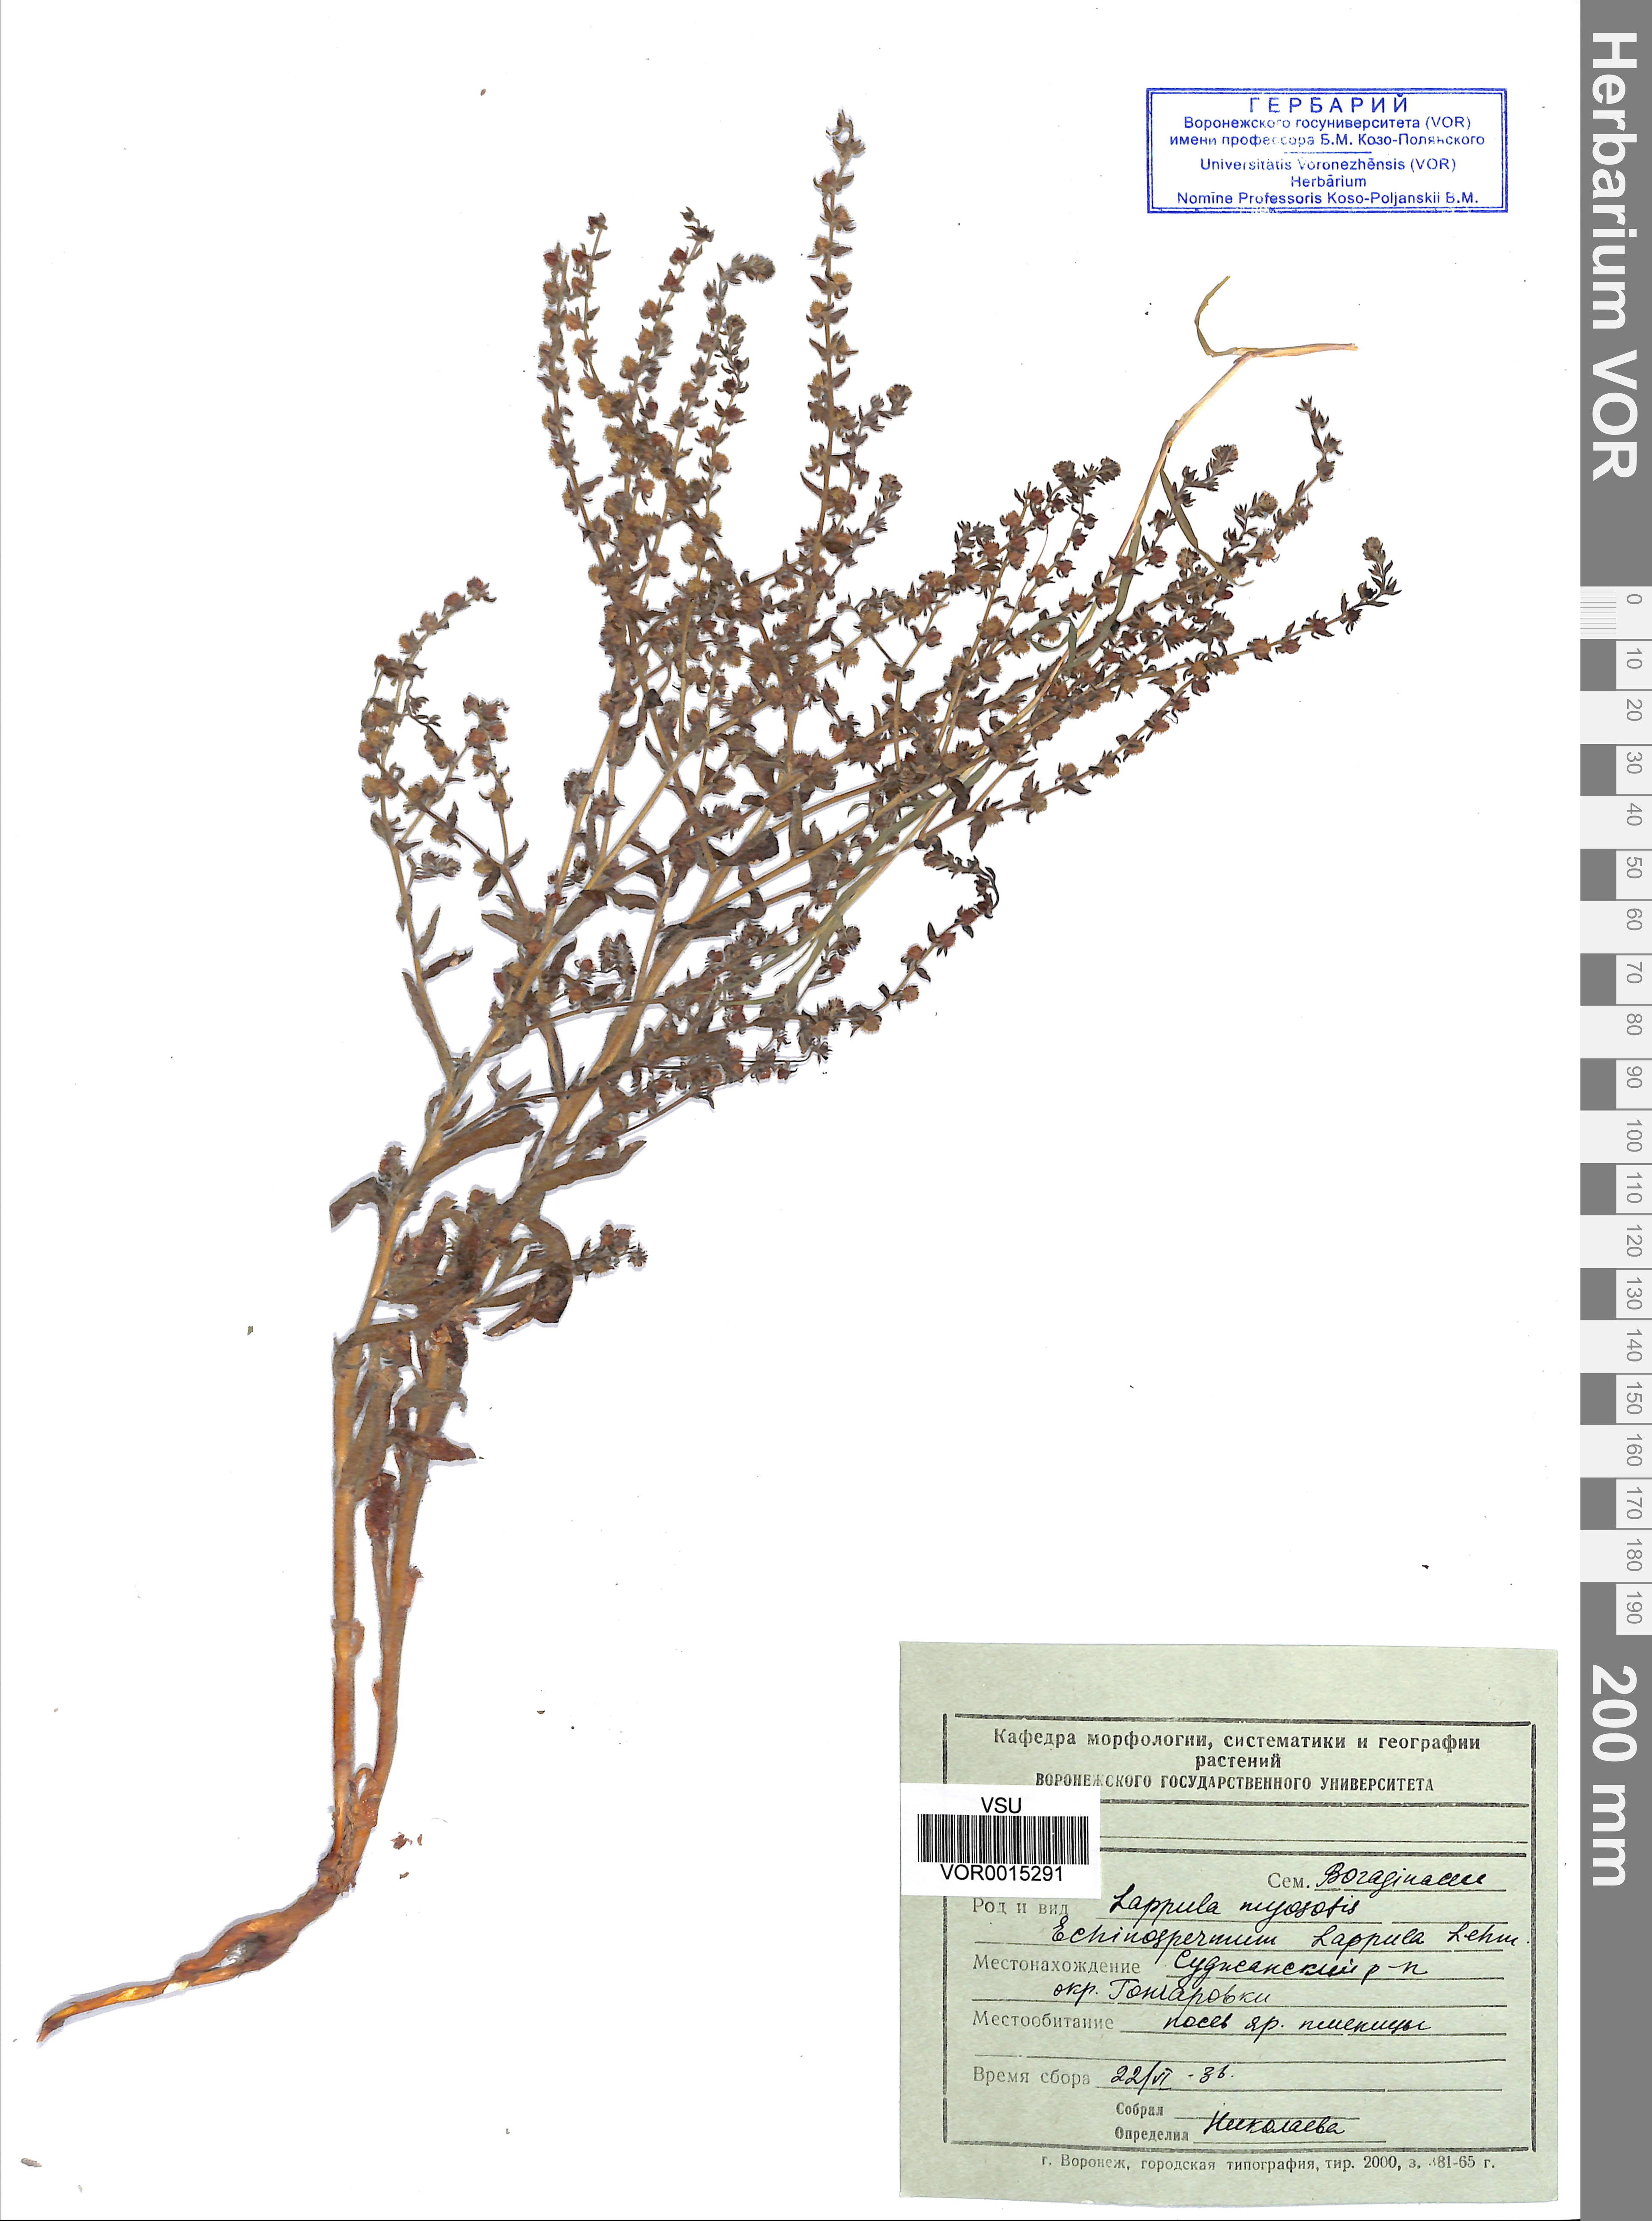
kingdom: Plantae
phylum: Tracheophyta
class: Magnoliopsida
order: Boraginales
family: Boraginaceae
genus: Lappula
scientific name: Lappula squarrosa
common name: European stickseed
